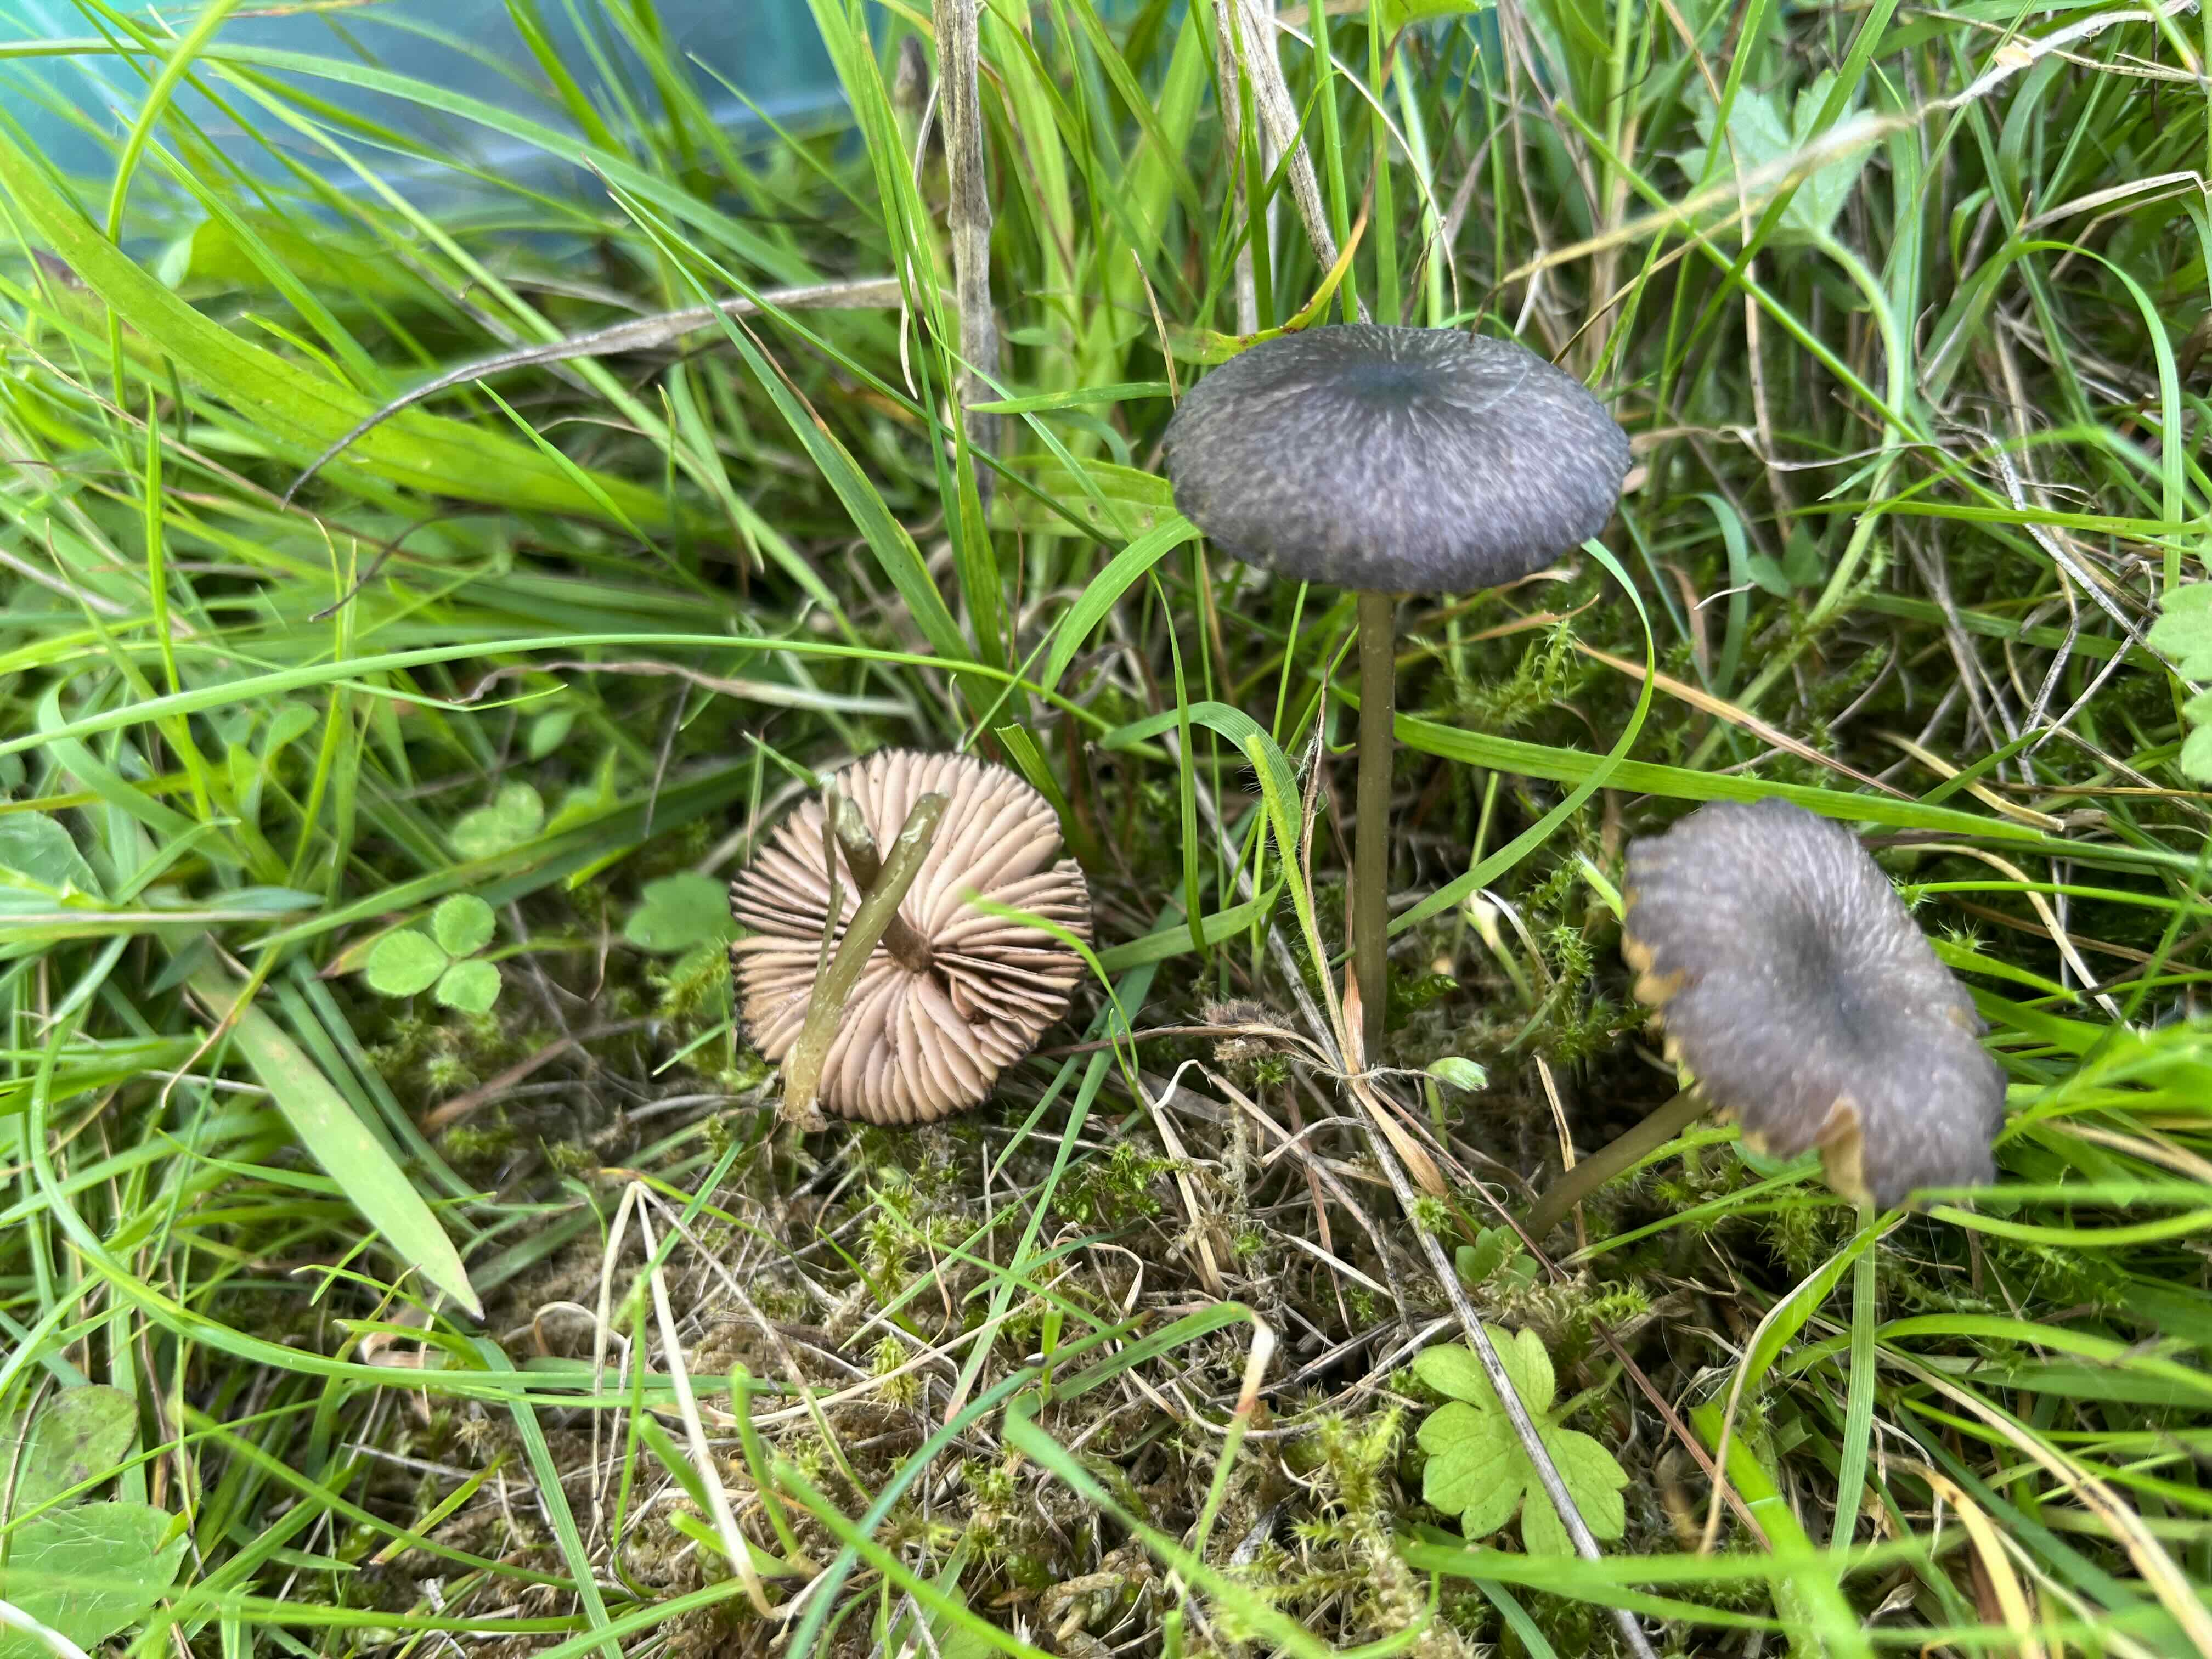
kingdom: Fungi
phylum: Basidiomycota
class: Agaricomycetes
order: Agaricales
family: Entolomataceae
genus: Entoloma
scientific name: Entoloma
